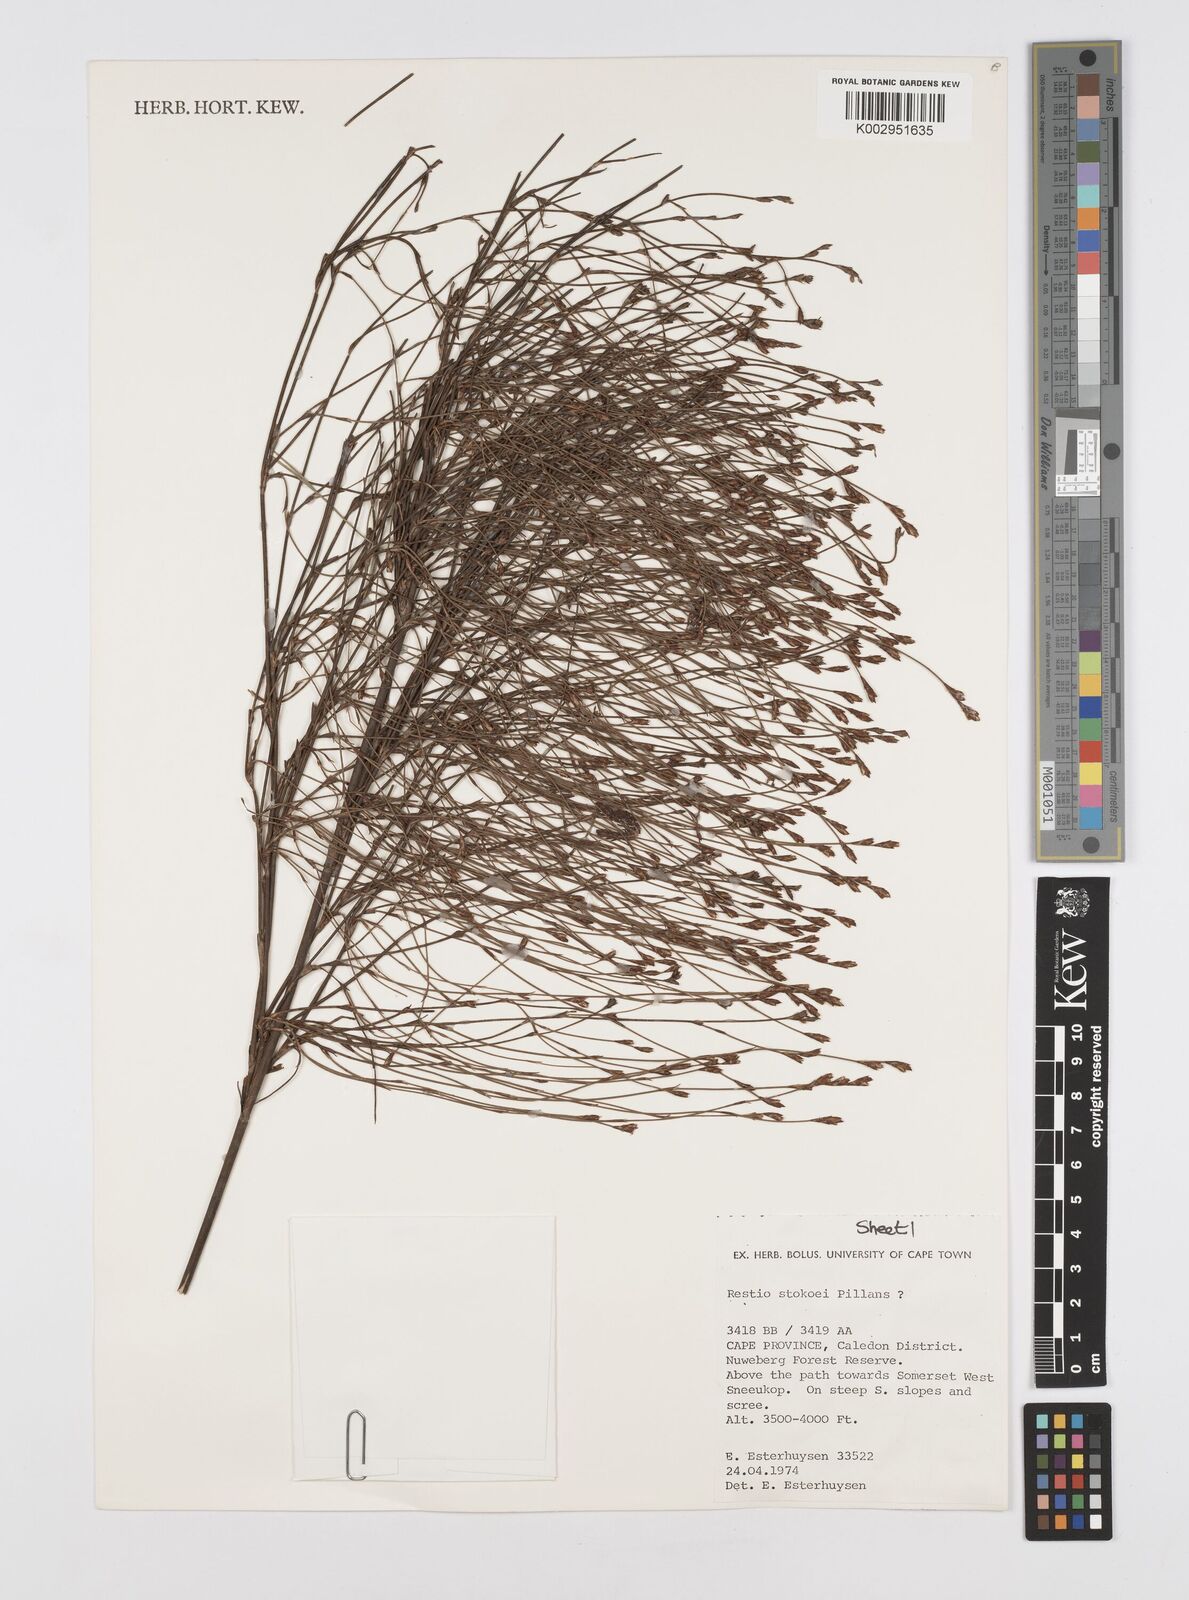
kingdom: Plantae
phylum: Tracheophyta
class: Liliopsida
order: Poales
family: Restionaceae
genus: Restio
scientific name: Restio stokoei
